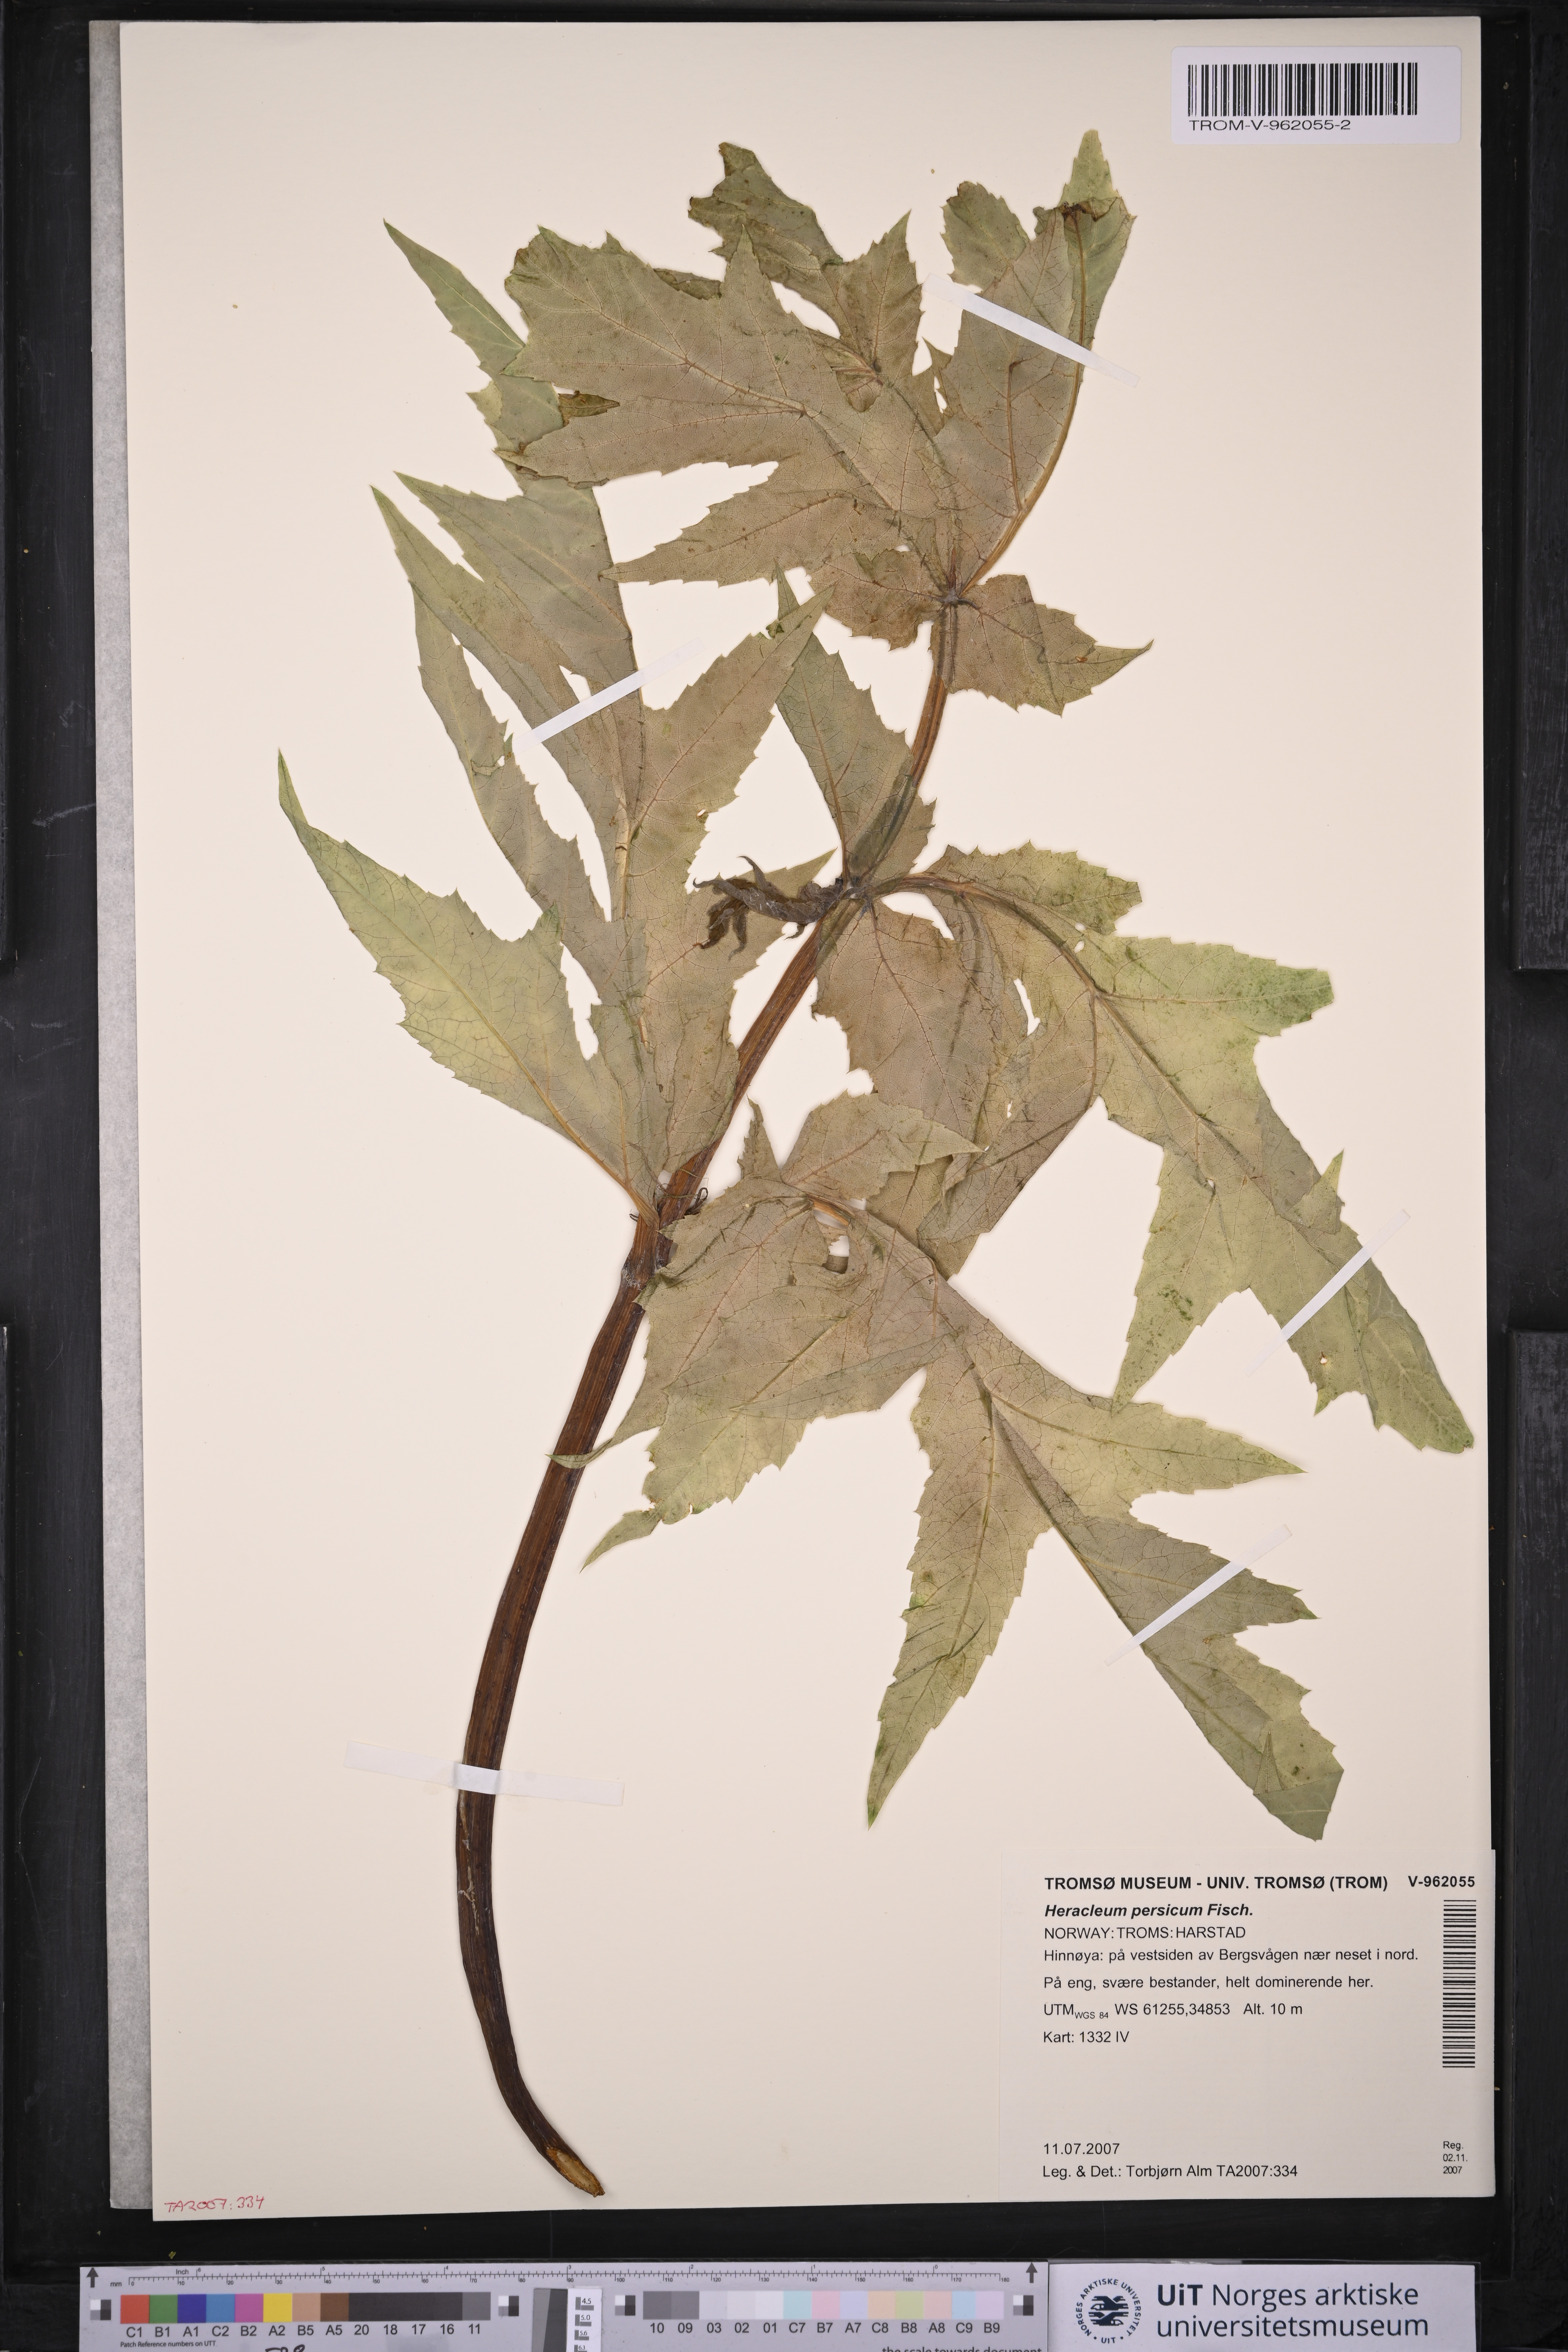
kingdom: Plantae
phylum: Tracheophyta
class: Magnoliopsida
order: Apiales
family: Apiaceae
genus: Heracleum
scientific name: Heracleum persicum
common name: Persian hogweed
